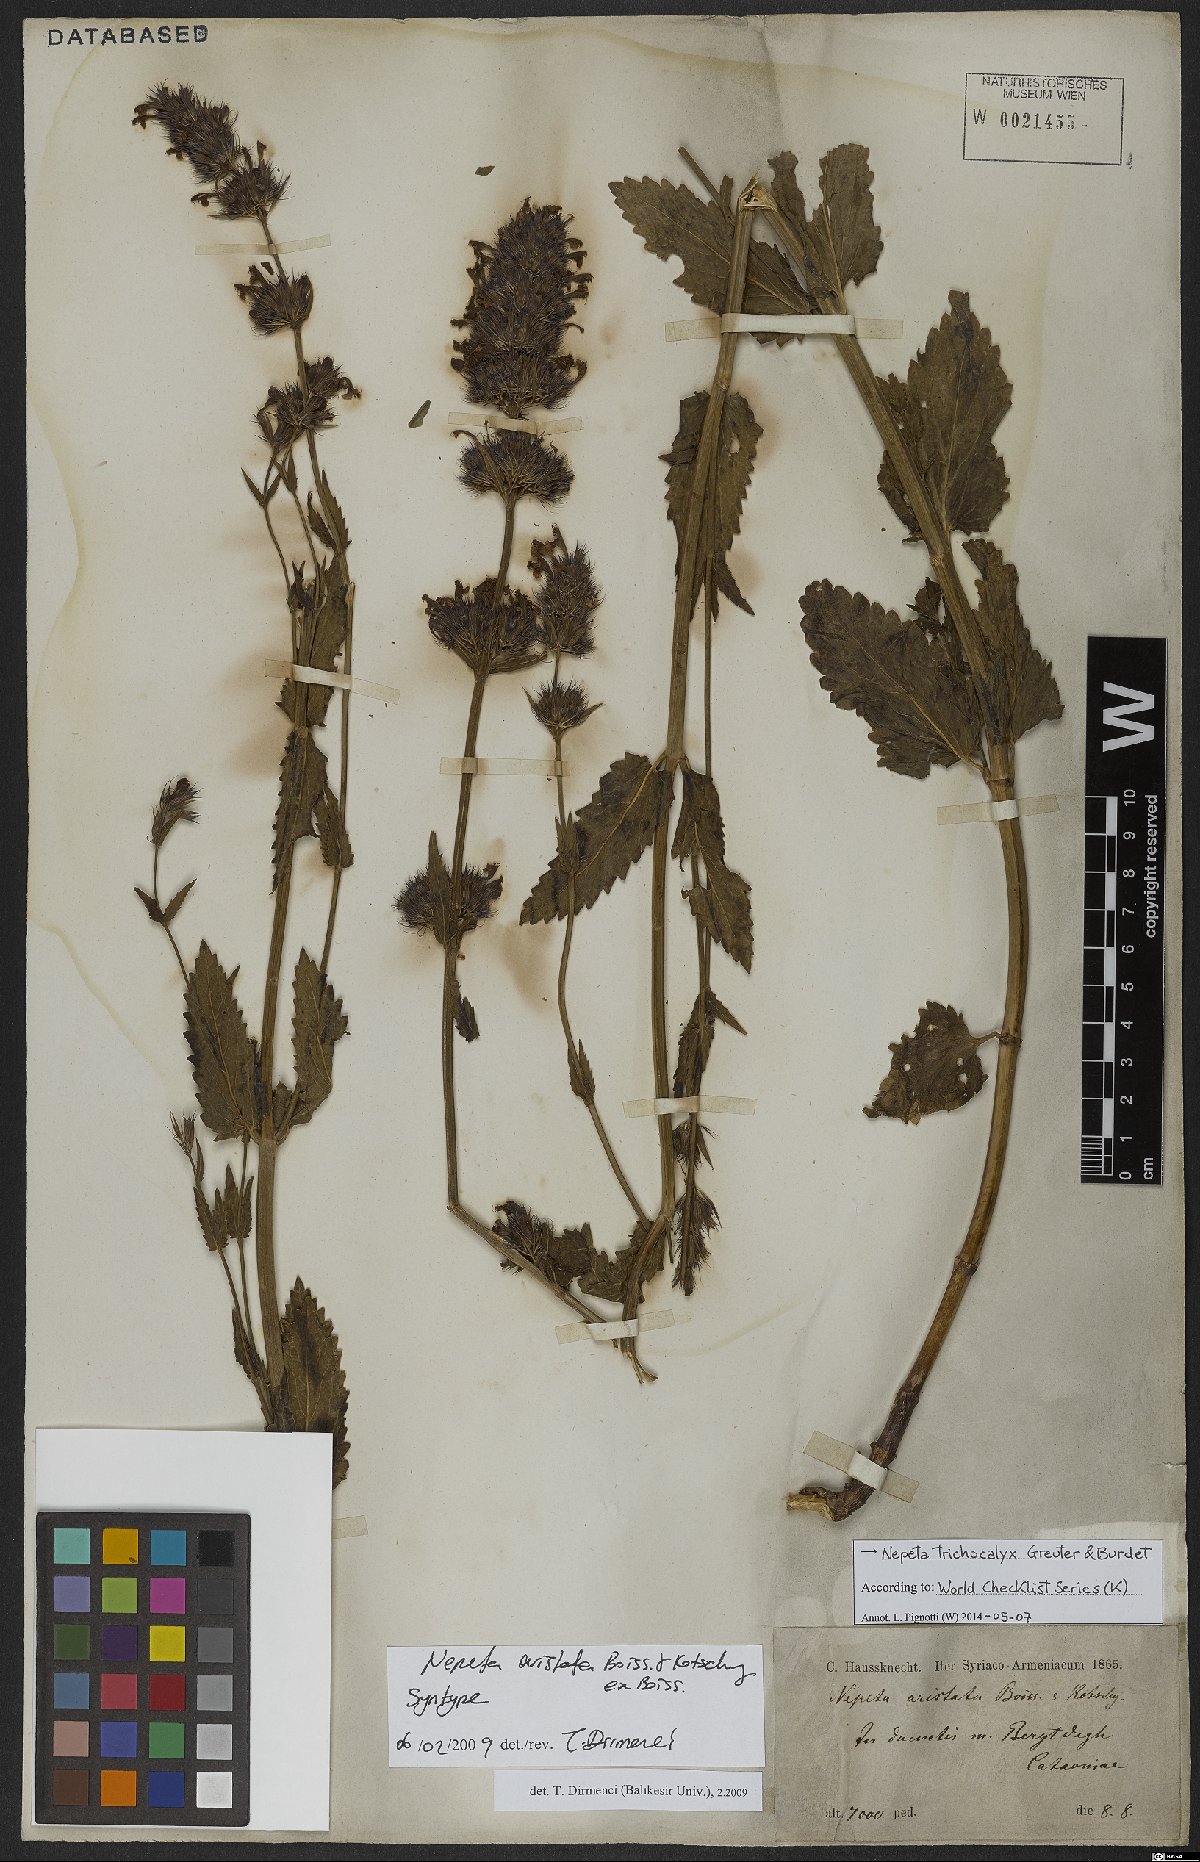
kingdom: Plantae
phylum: Tracheophyta
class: Magnoliopsida
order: Lamiales
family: Lamiaceae
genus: Nepeta
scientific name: Nepeta trichocalyx
